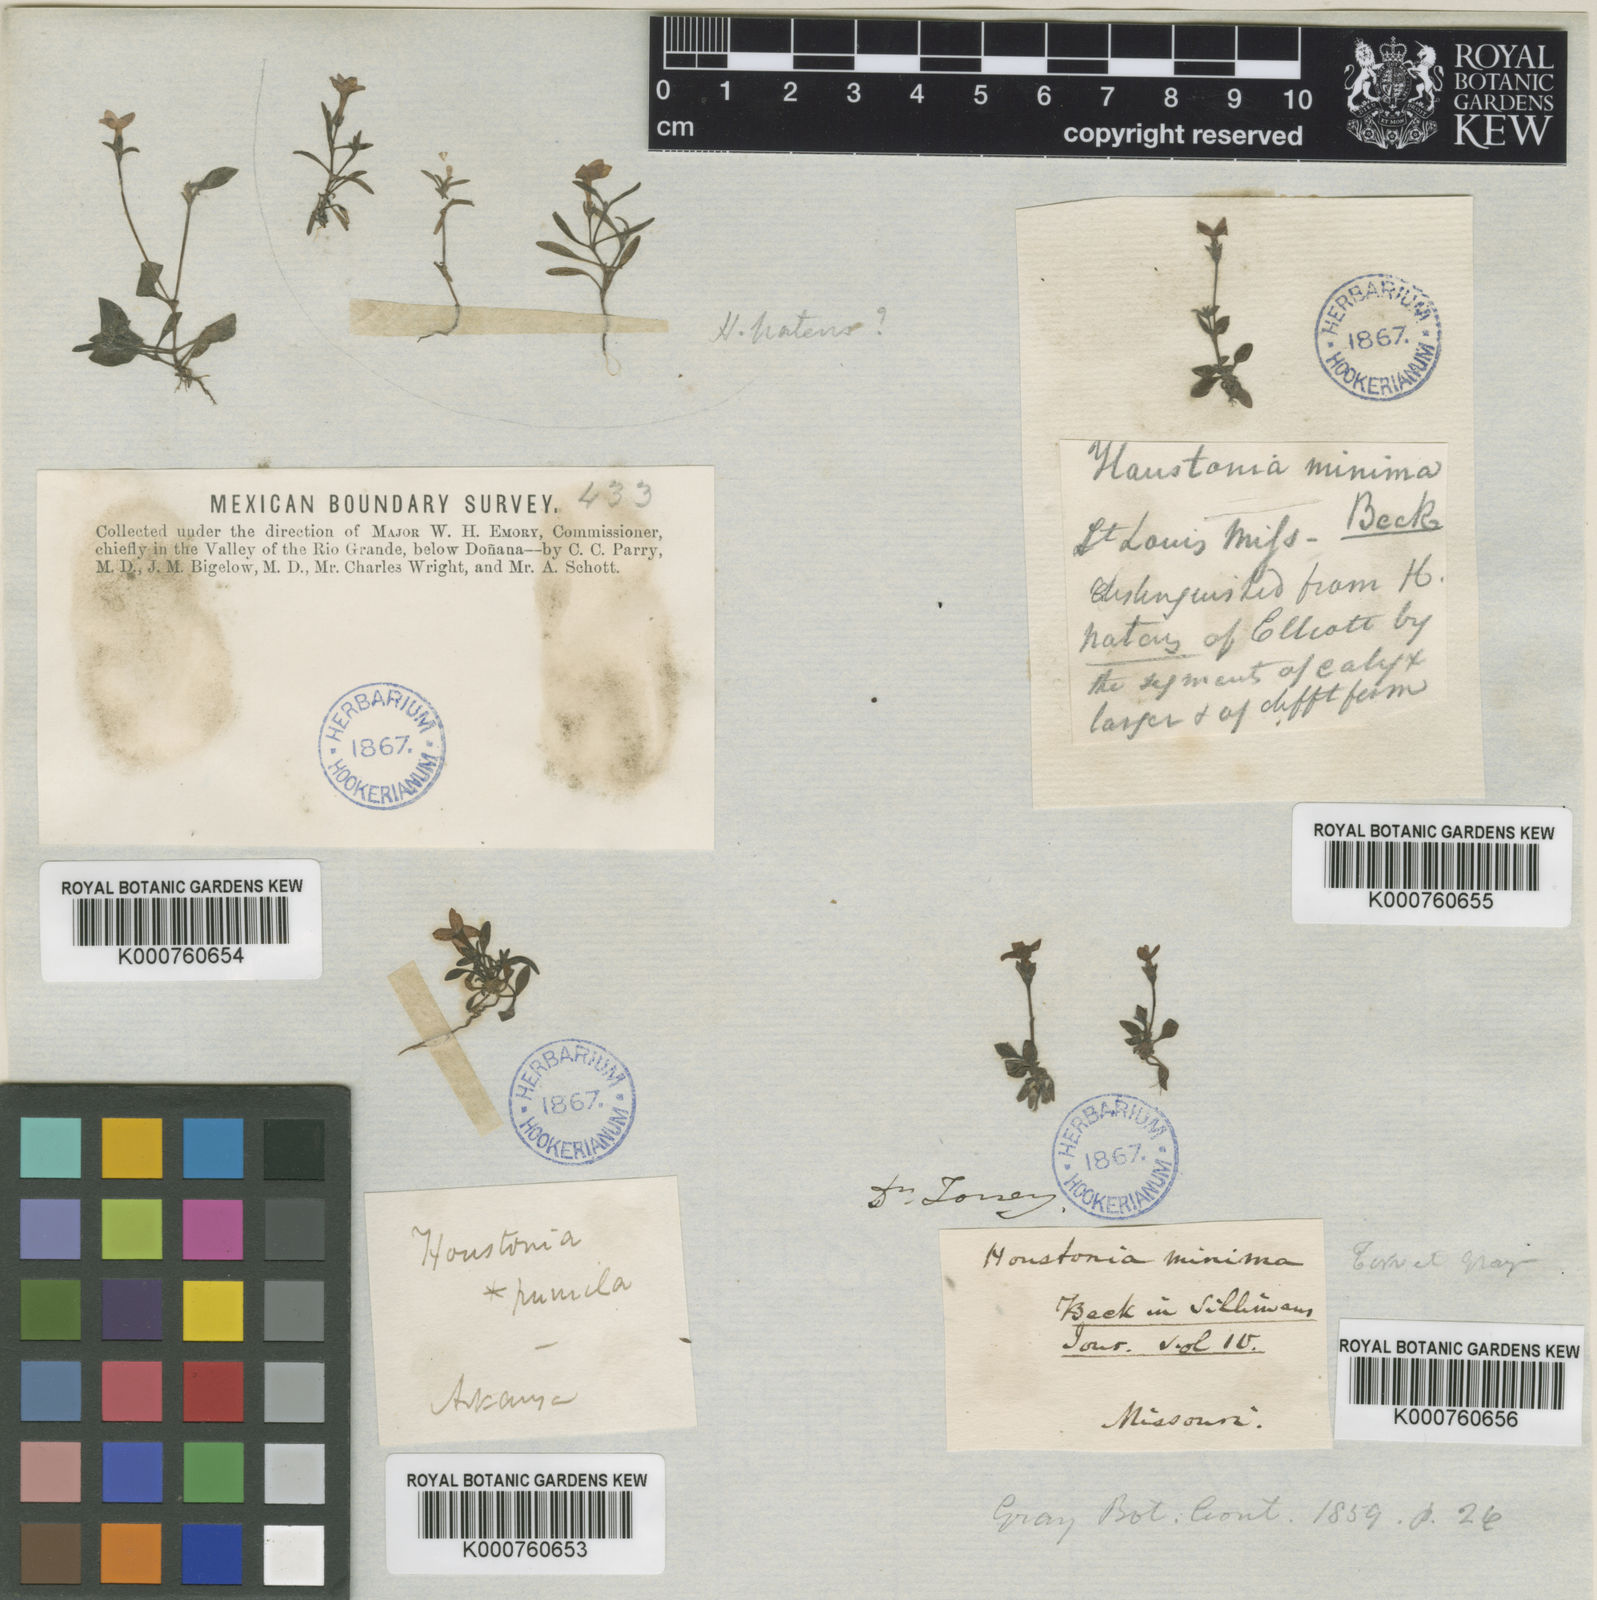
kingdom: Plantae
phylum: Tracheophyta
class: Magnoliopsida
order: Gentianales
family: Rubiaceae
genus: Houstonia
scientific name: Houstonia
